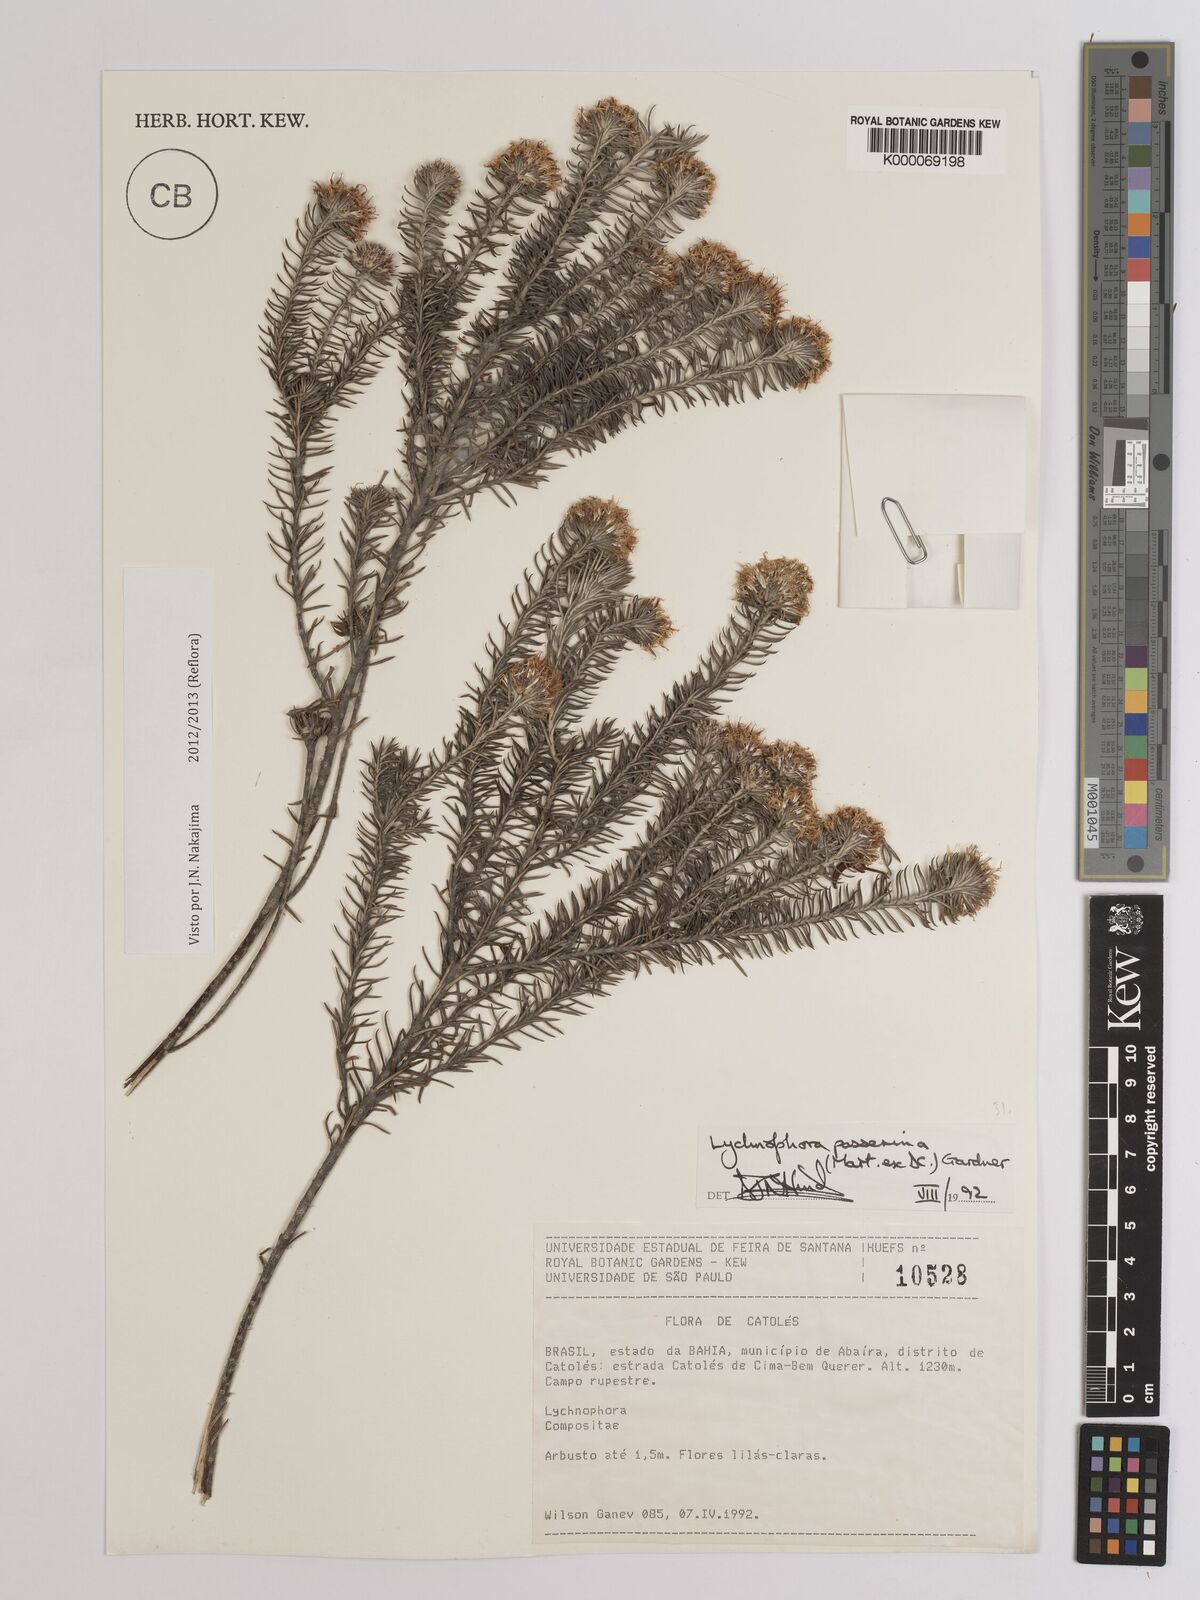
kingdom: Plantae
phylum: Tracheophyta
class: Magnoliopsida
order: Asterales
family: Asteraceae
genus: Lychnophora
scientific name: Lychnophora passerina
